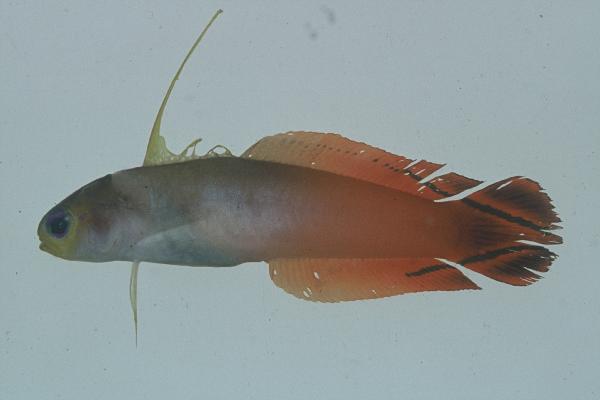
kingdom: Animalia
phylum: Chordata
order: Perciformes
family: Microdesmidae
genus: Nemateleotris
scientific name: Nemateleotris magnifica
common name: Fire goby
